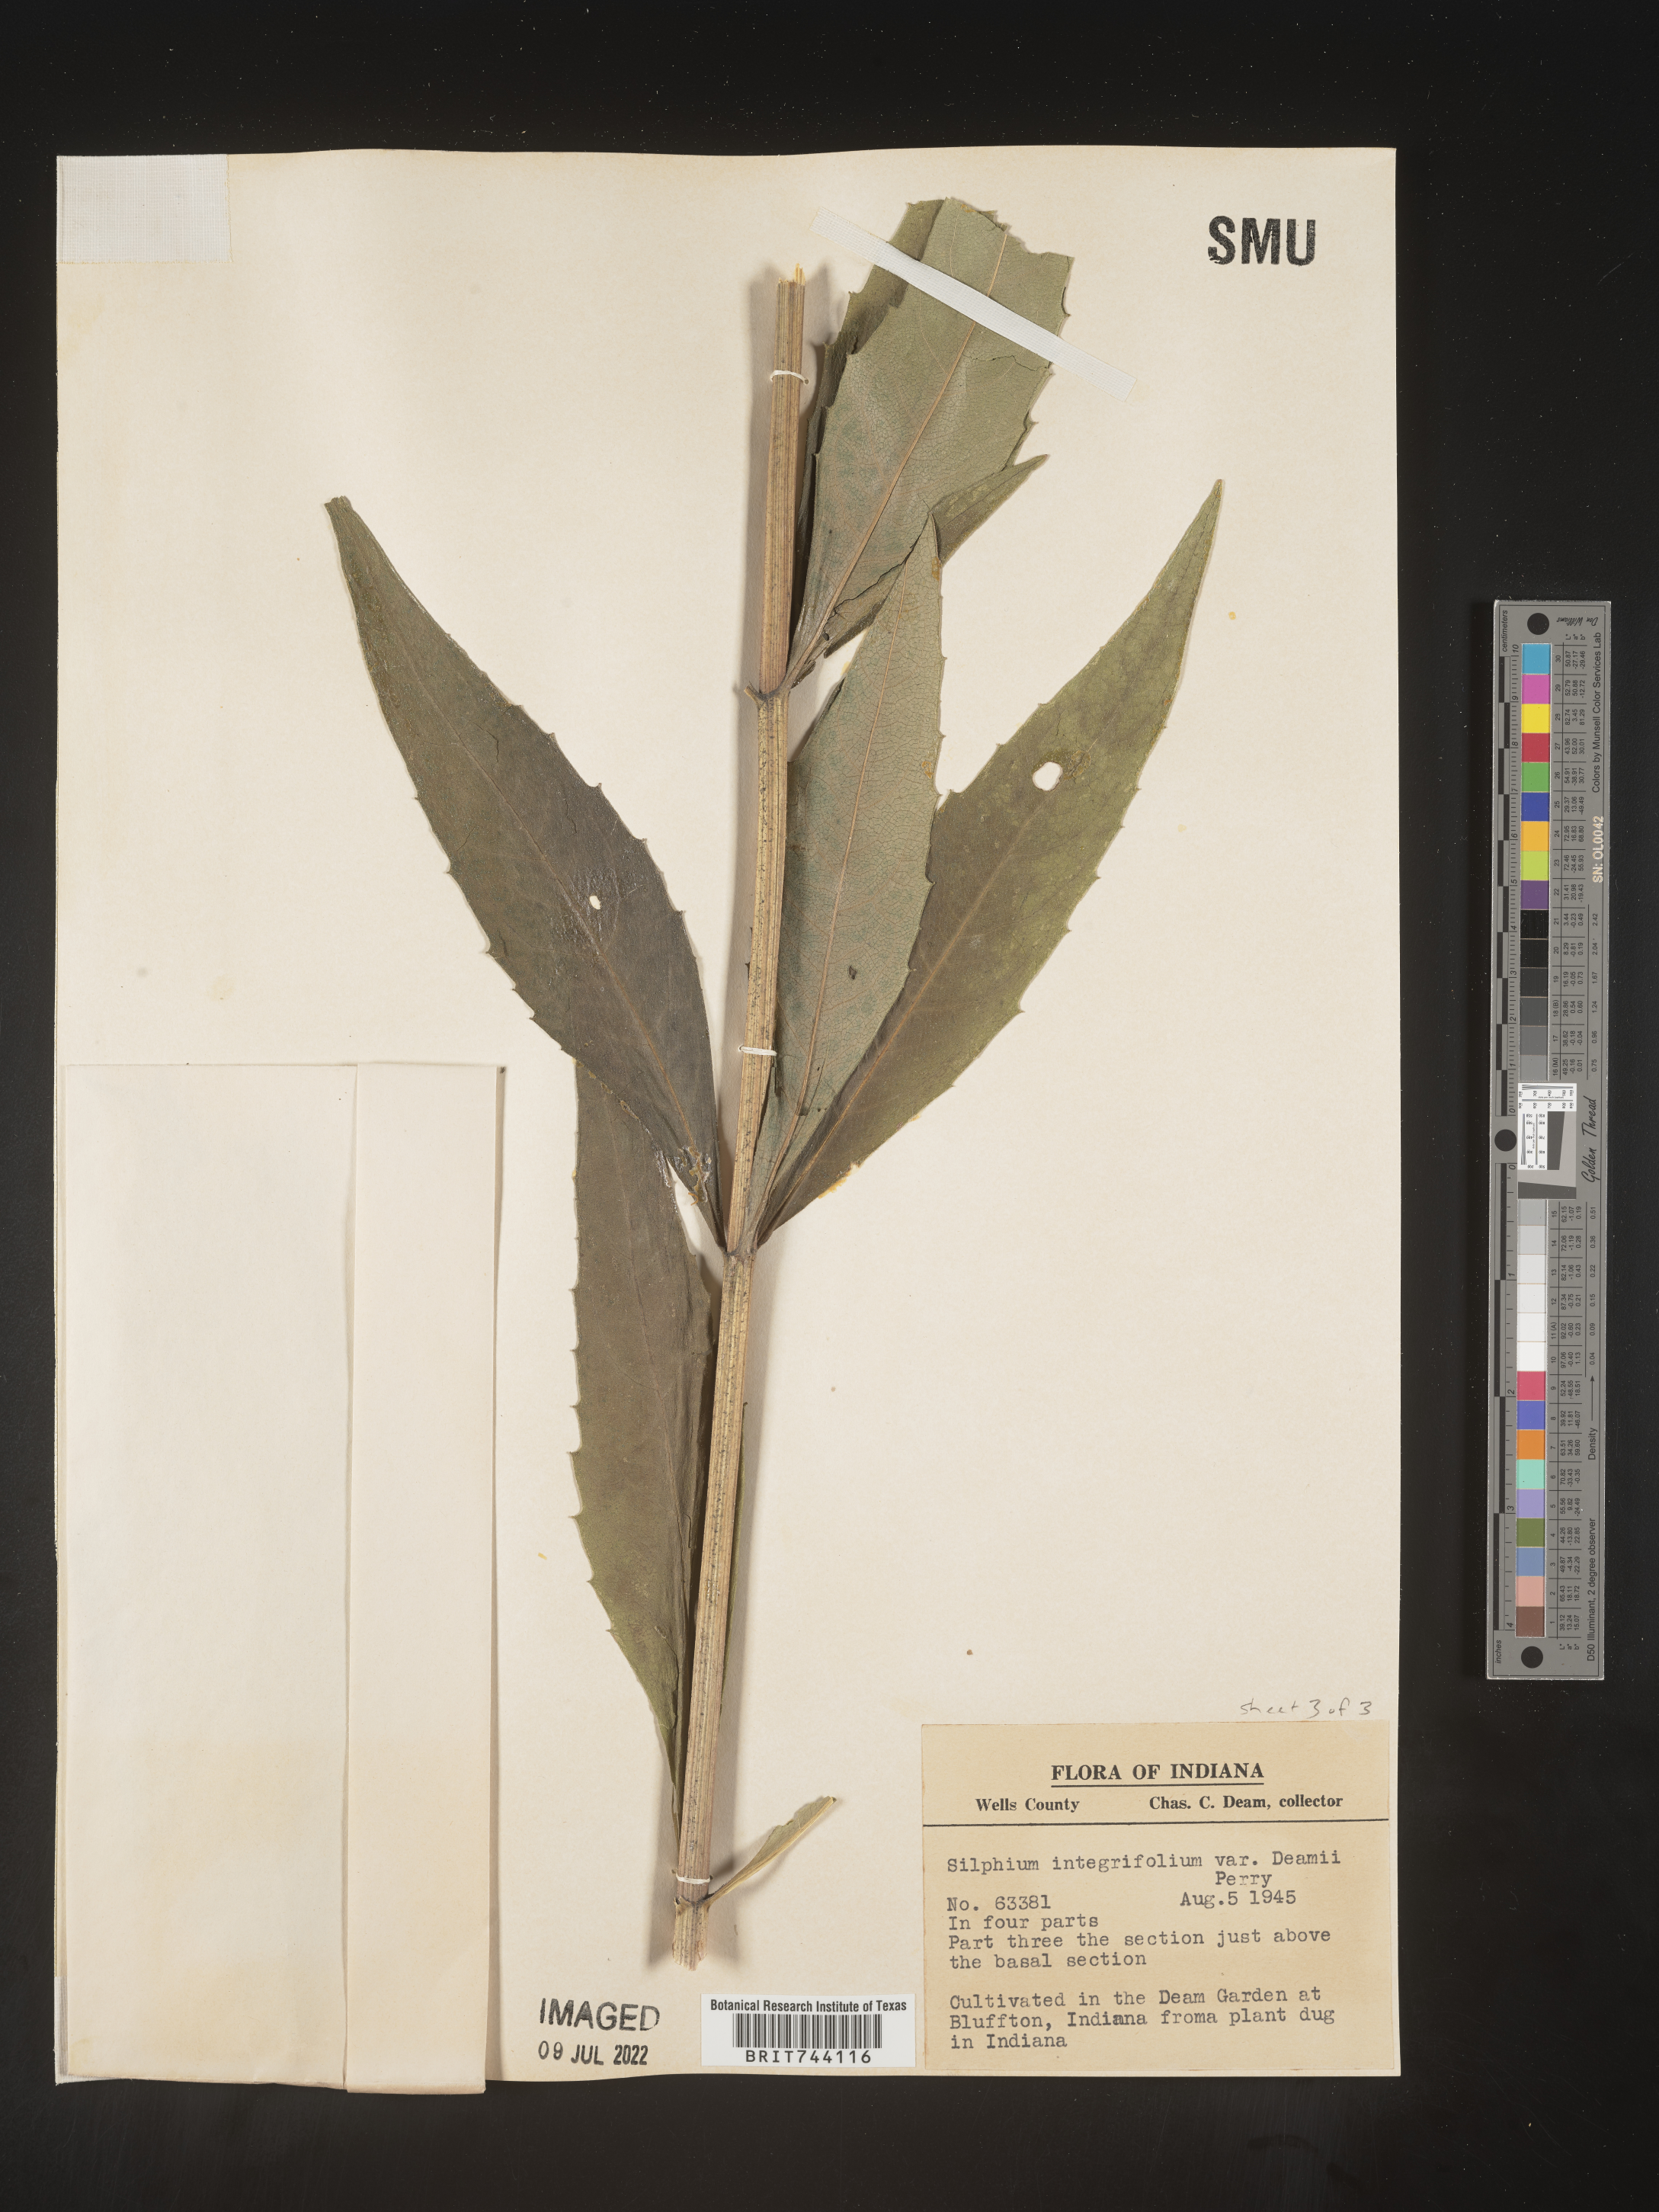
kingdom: Plantae
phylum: Tracheophyta
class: Magnoliopsida
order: Asterales
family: Asteraceae
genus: Silphium
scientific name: Silphium
